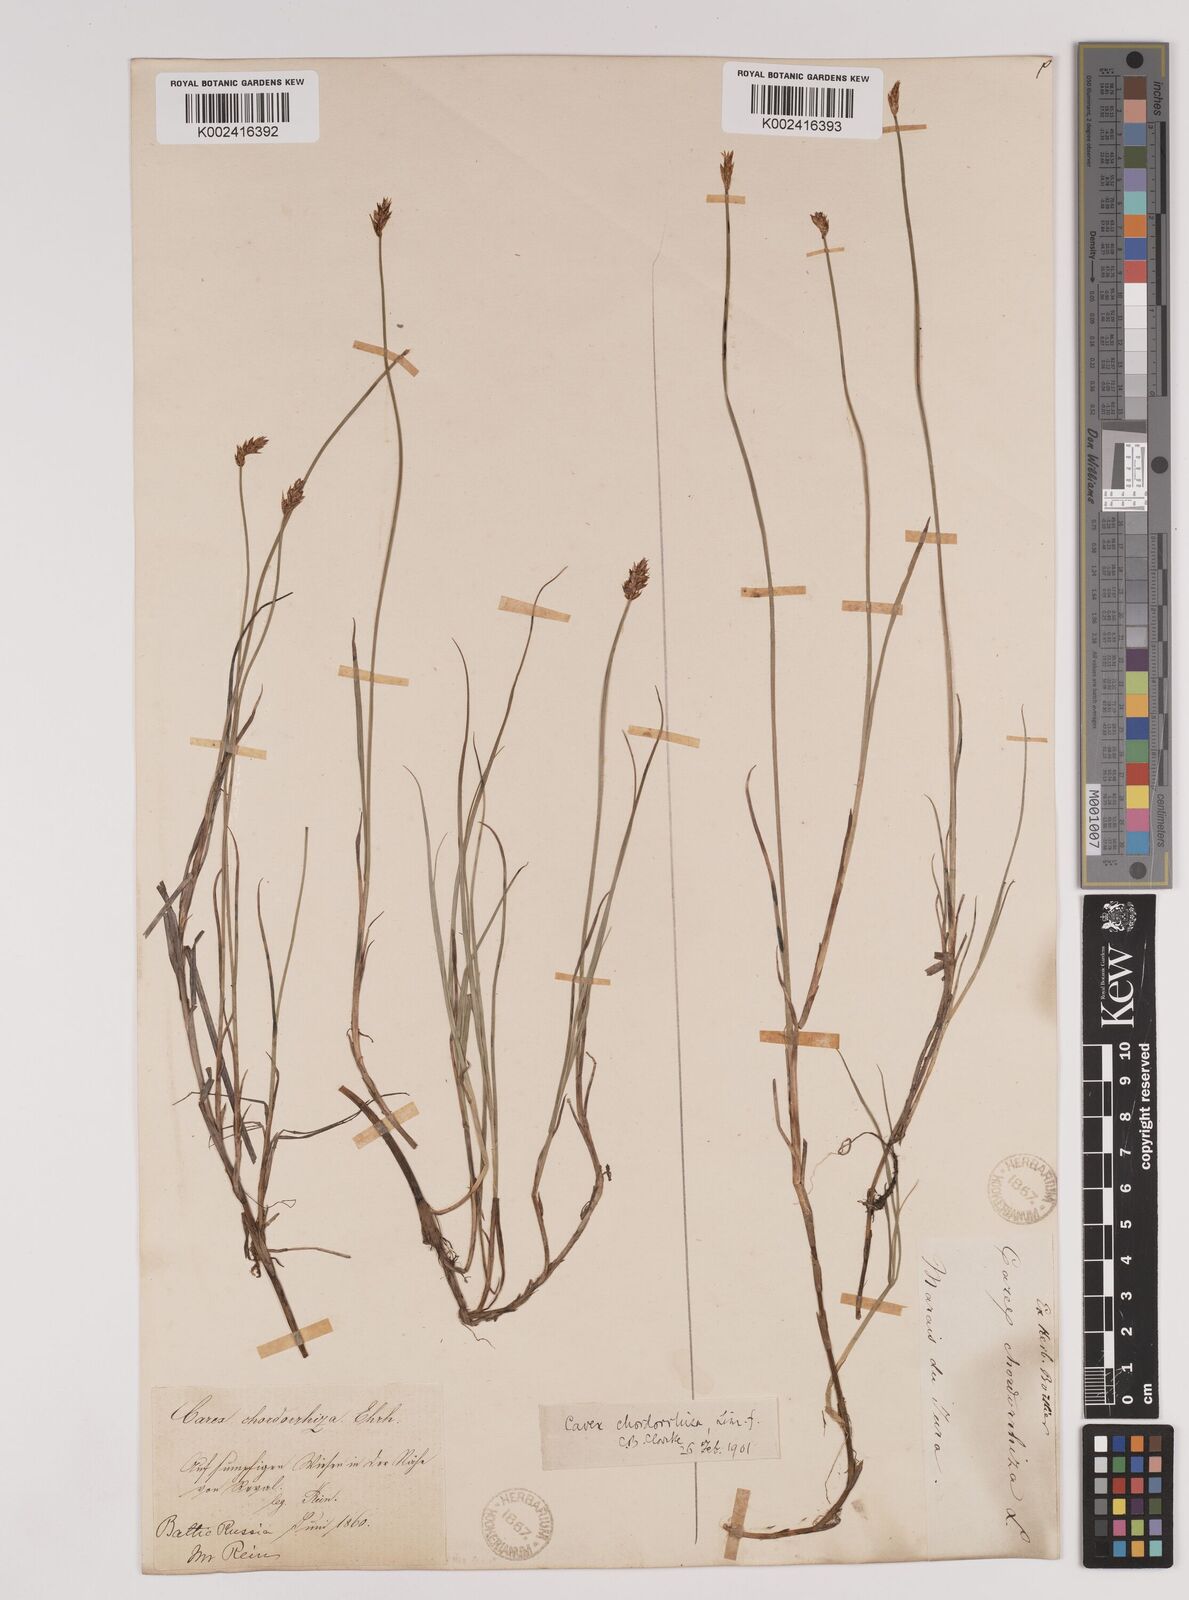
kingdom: Plantae
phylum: Tracheophyta
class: Liliopsida
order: Poales
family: Cyperaceae
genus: Carex
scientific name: Carex chordorrhiza
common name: String sedge
